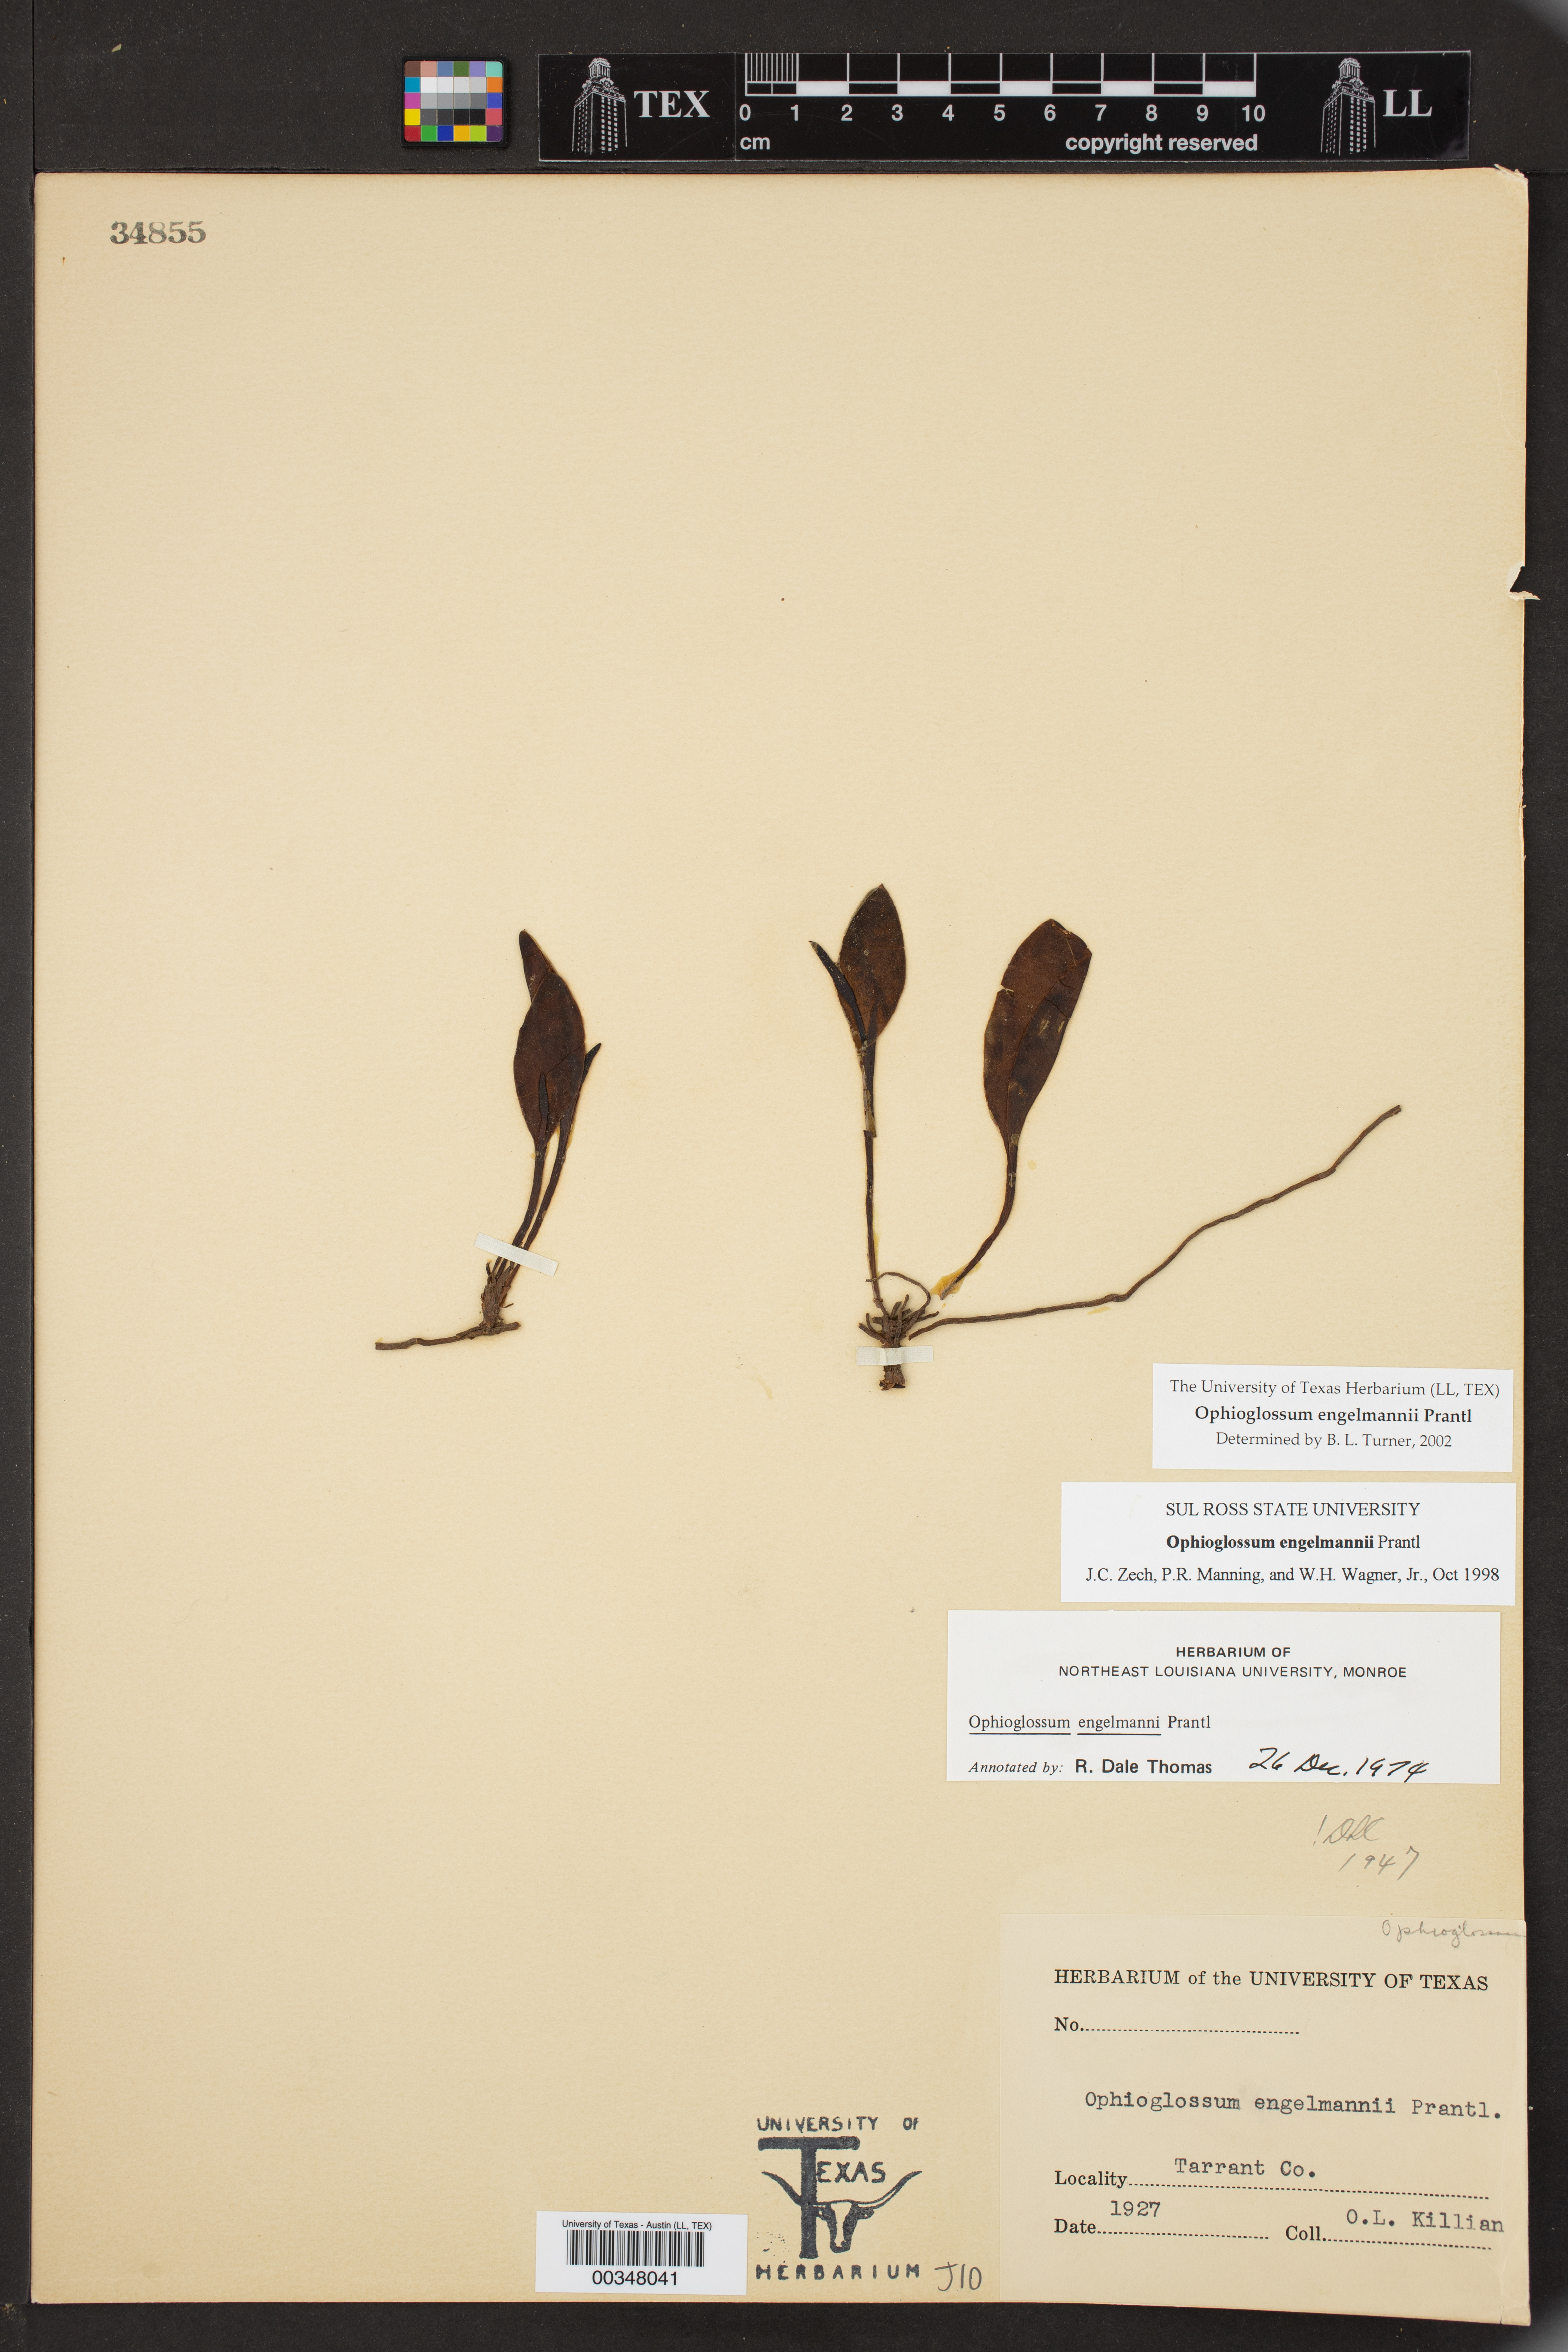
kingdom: Plantae
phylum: Tracheophyta
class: Polypodiopsida
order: Ophioglossales
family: Ophioglossaceae
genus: Ophioglossum
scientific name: Ophioglossum engelmannii
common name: Limestone adder's-tongue
